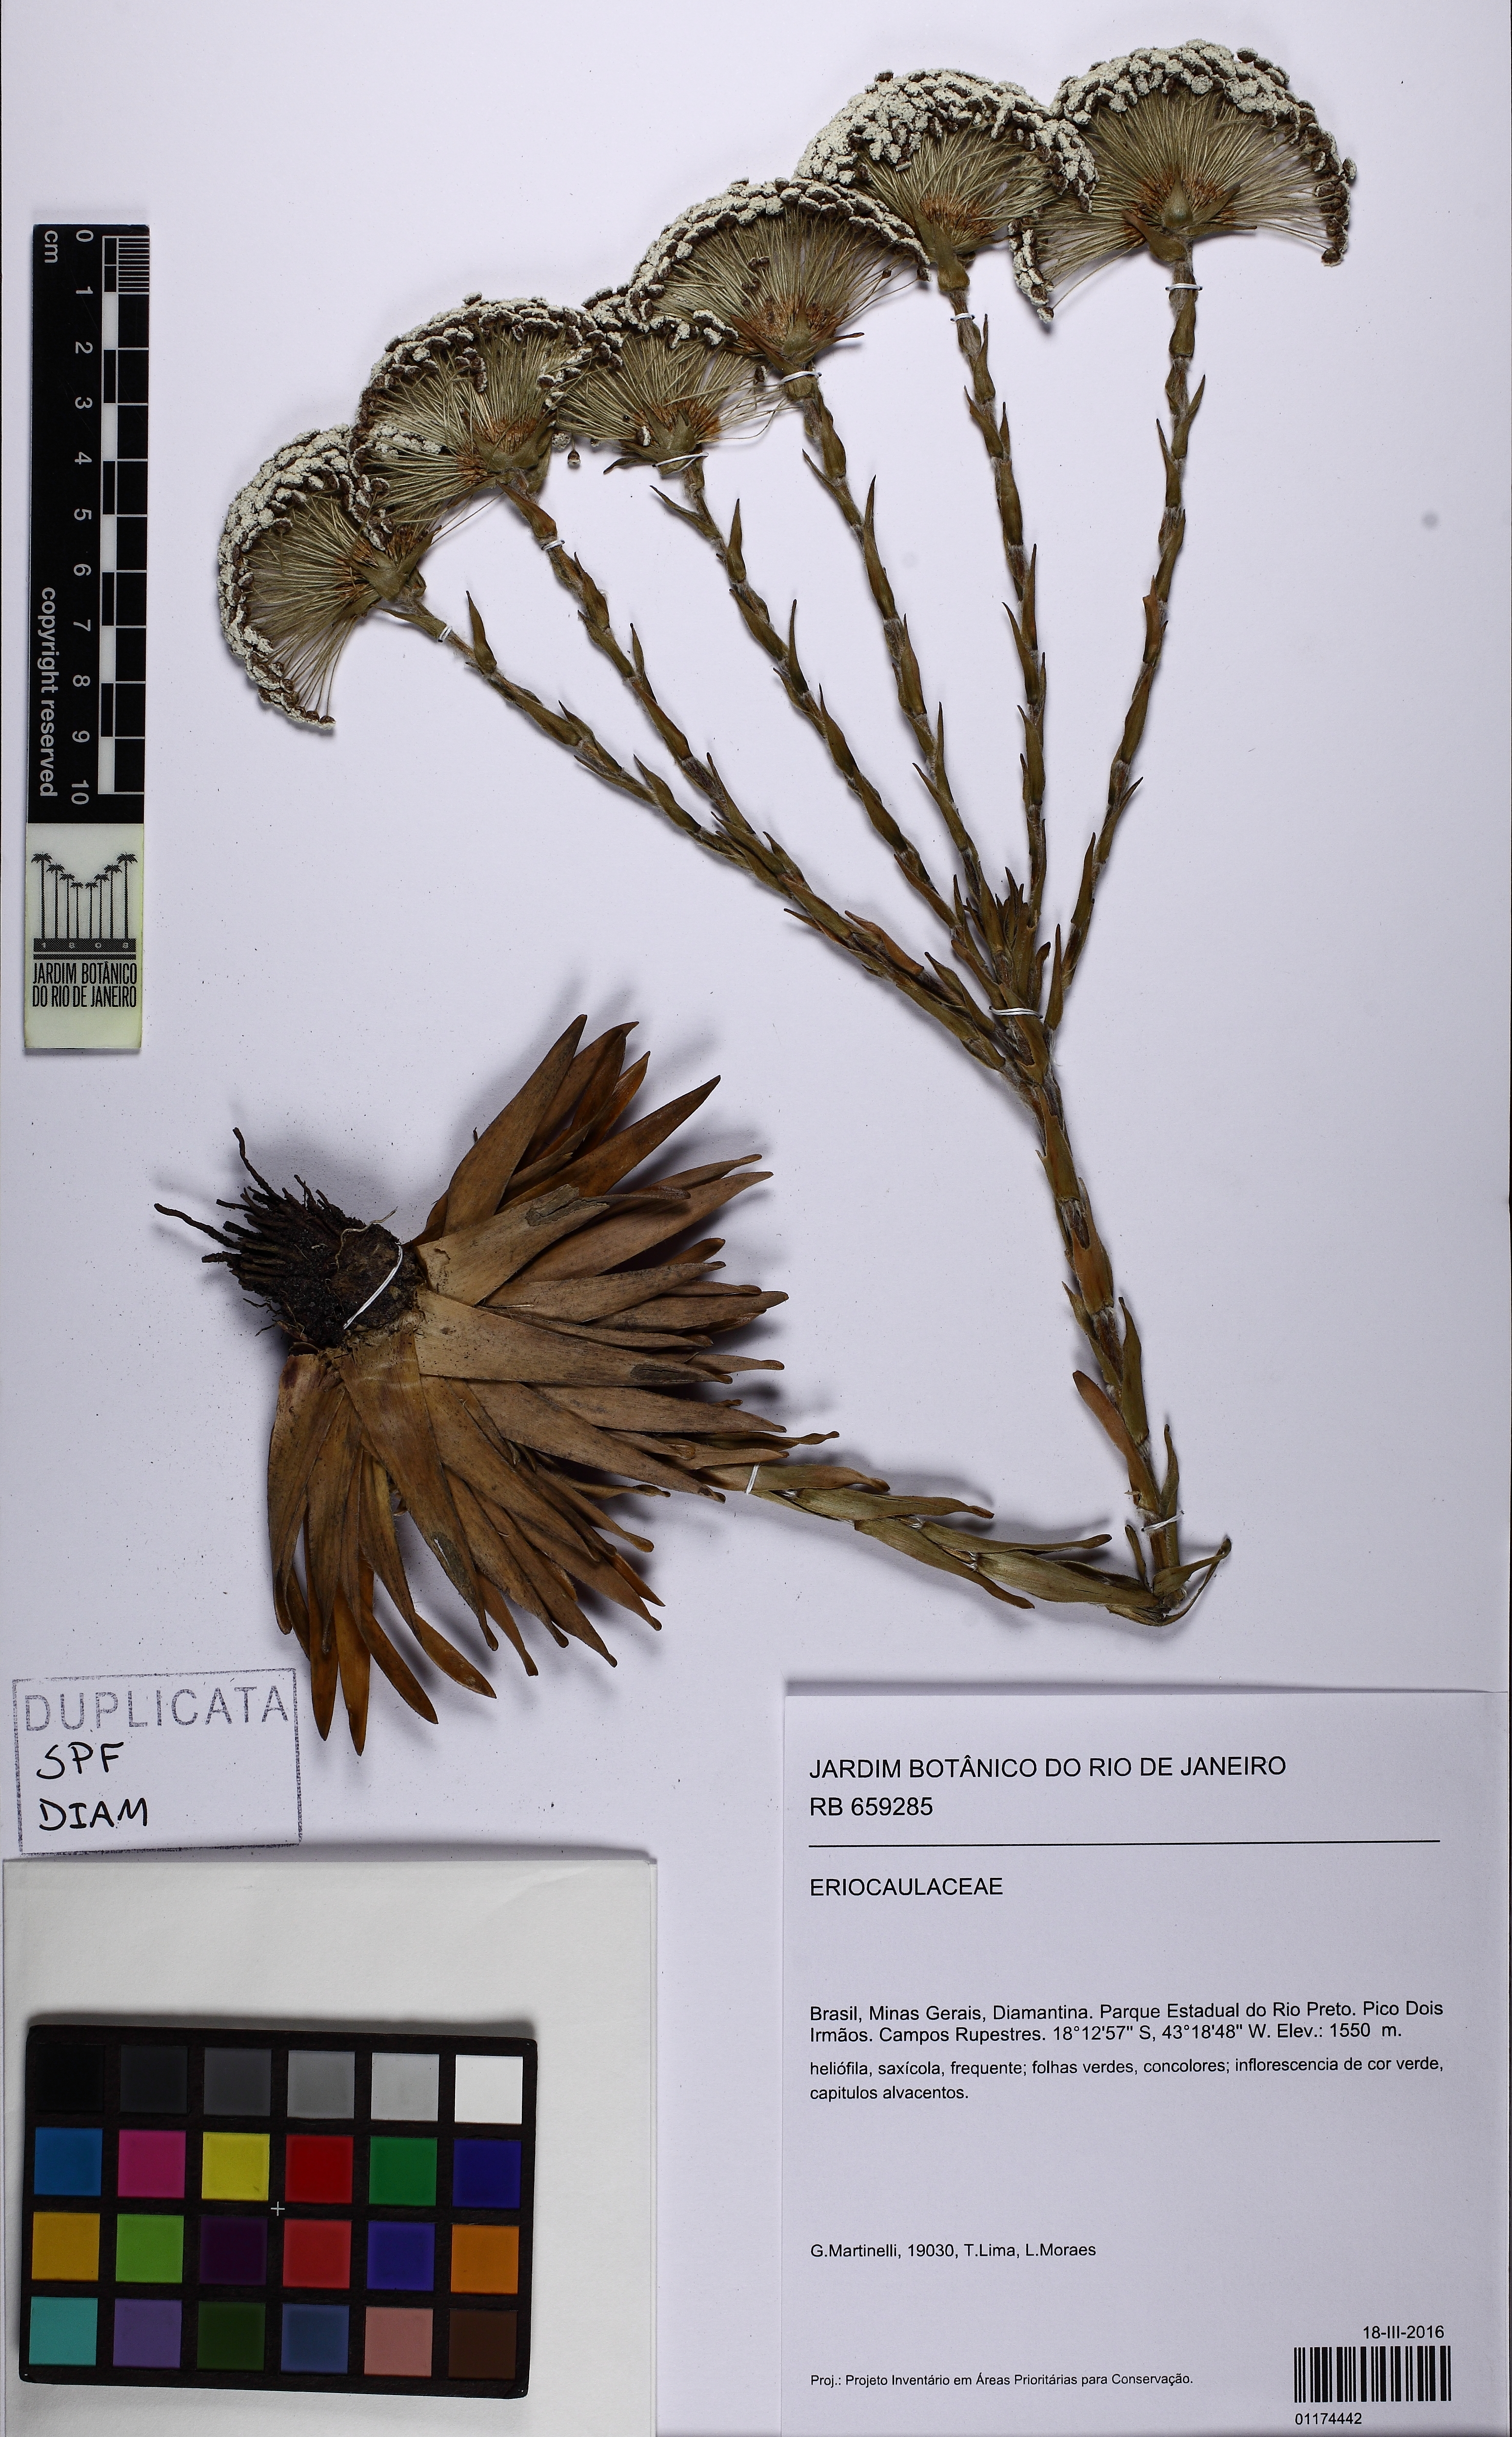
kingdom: Plantae
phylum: Tracheophyta
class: Liliopsida
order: Poales
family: Eriocaulaceae
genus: Paepalanthus
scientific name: Paepalanthus polyanthus
